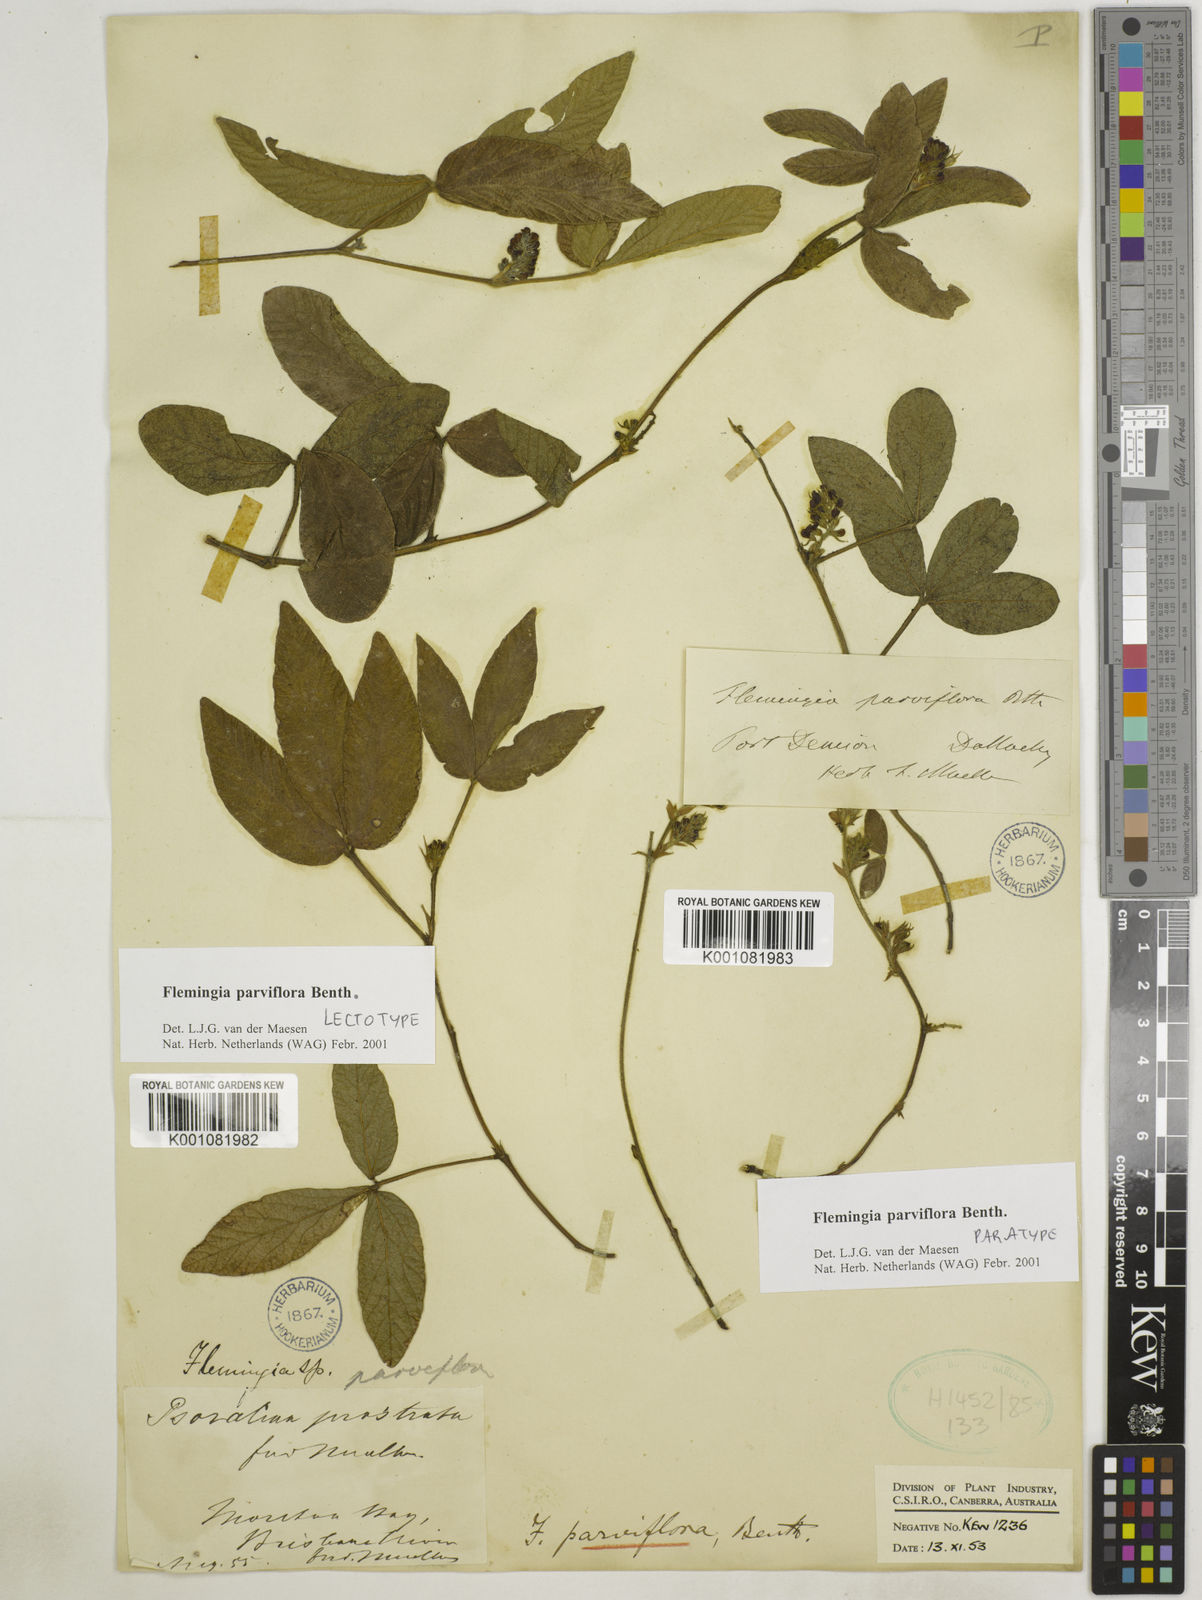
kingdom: Plantae
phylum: Tracheophyta
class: Magnoliopsida
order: Fabales
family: Fabaceae
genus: Flemingia
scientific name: Flemingia parviflora
